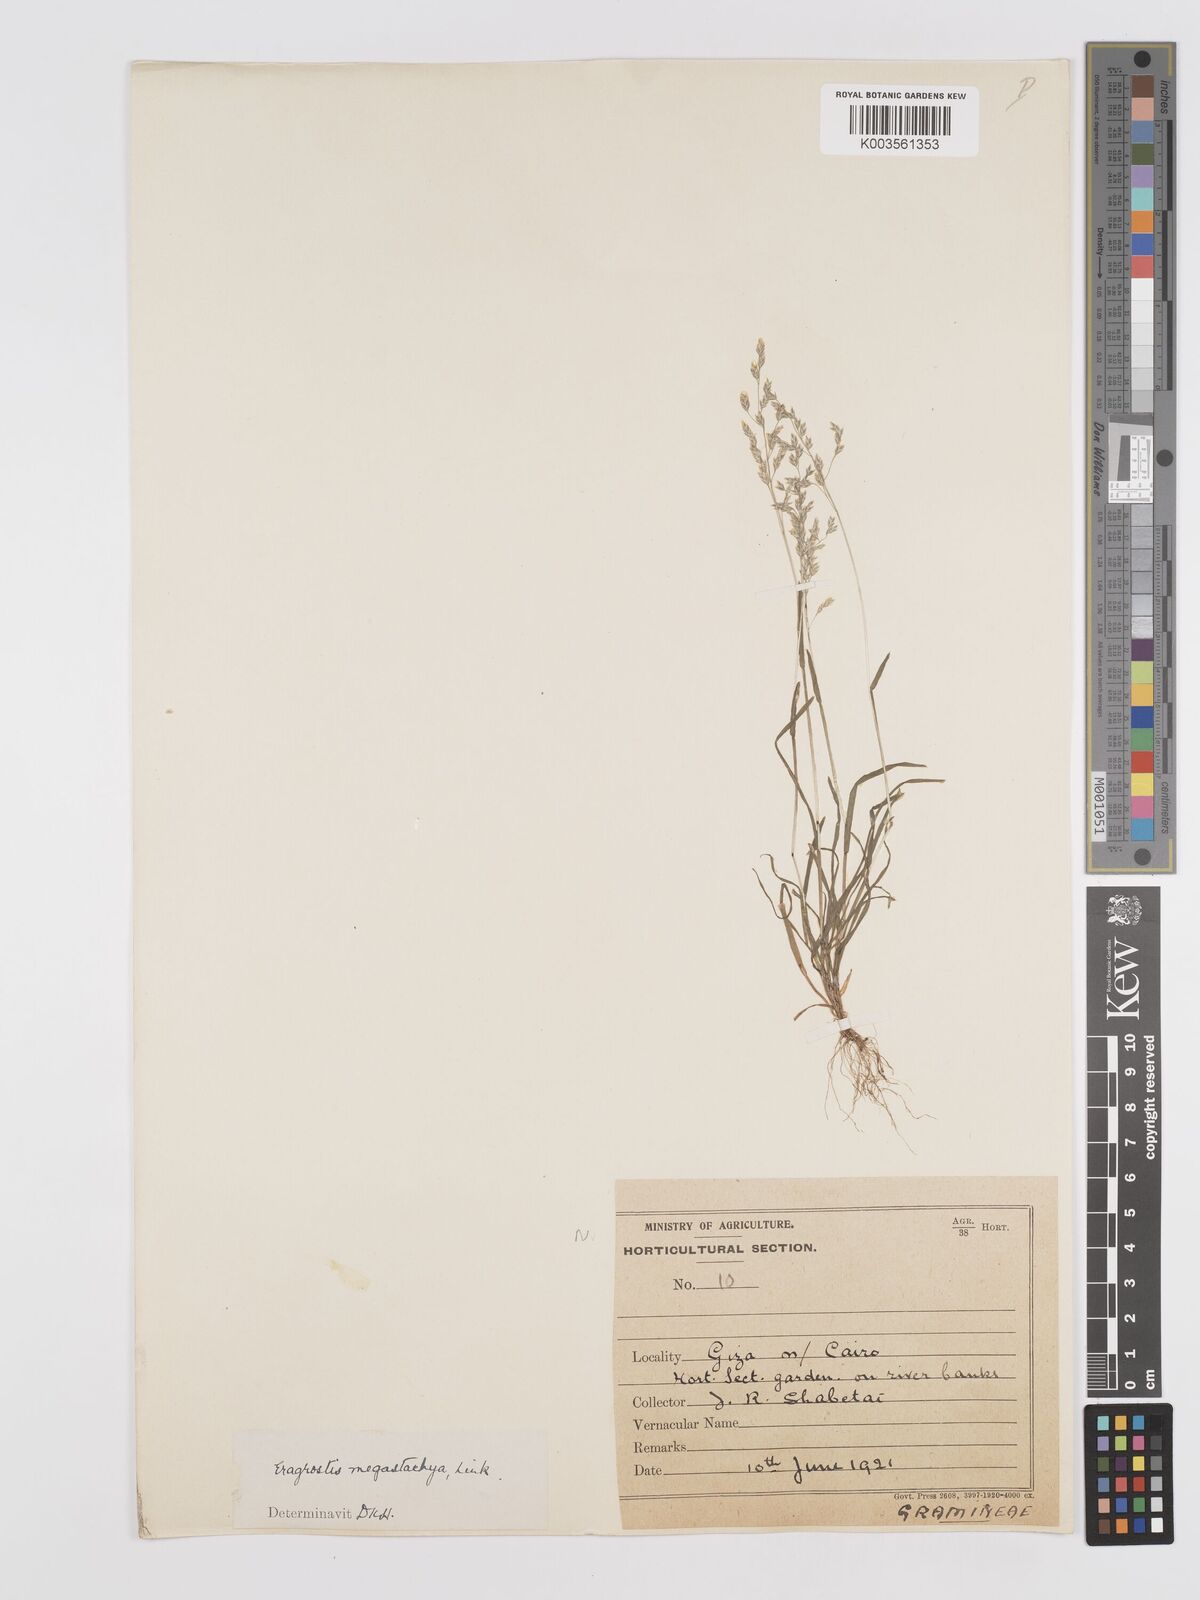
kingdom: Plantae
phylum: Tracheophyta
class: Liliopsida
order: Poales
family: Poaceae
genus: Eragrostis
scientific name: Eragrostis cilianensis
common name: Stinkgrass
